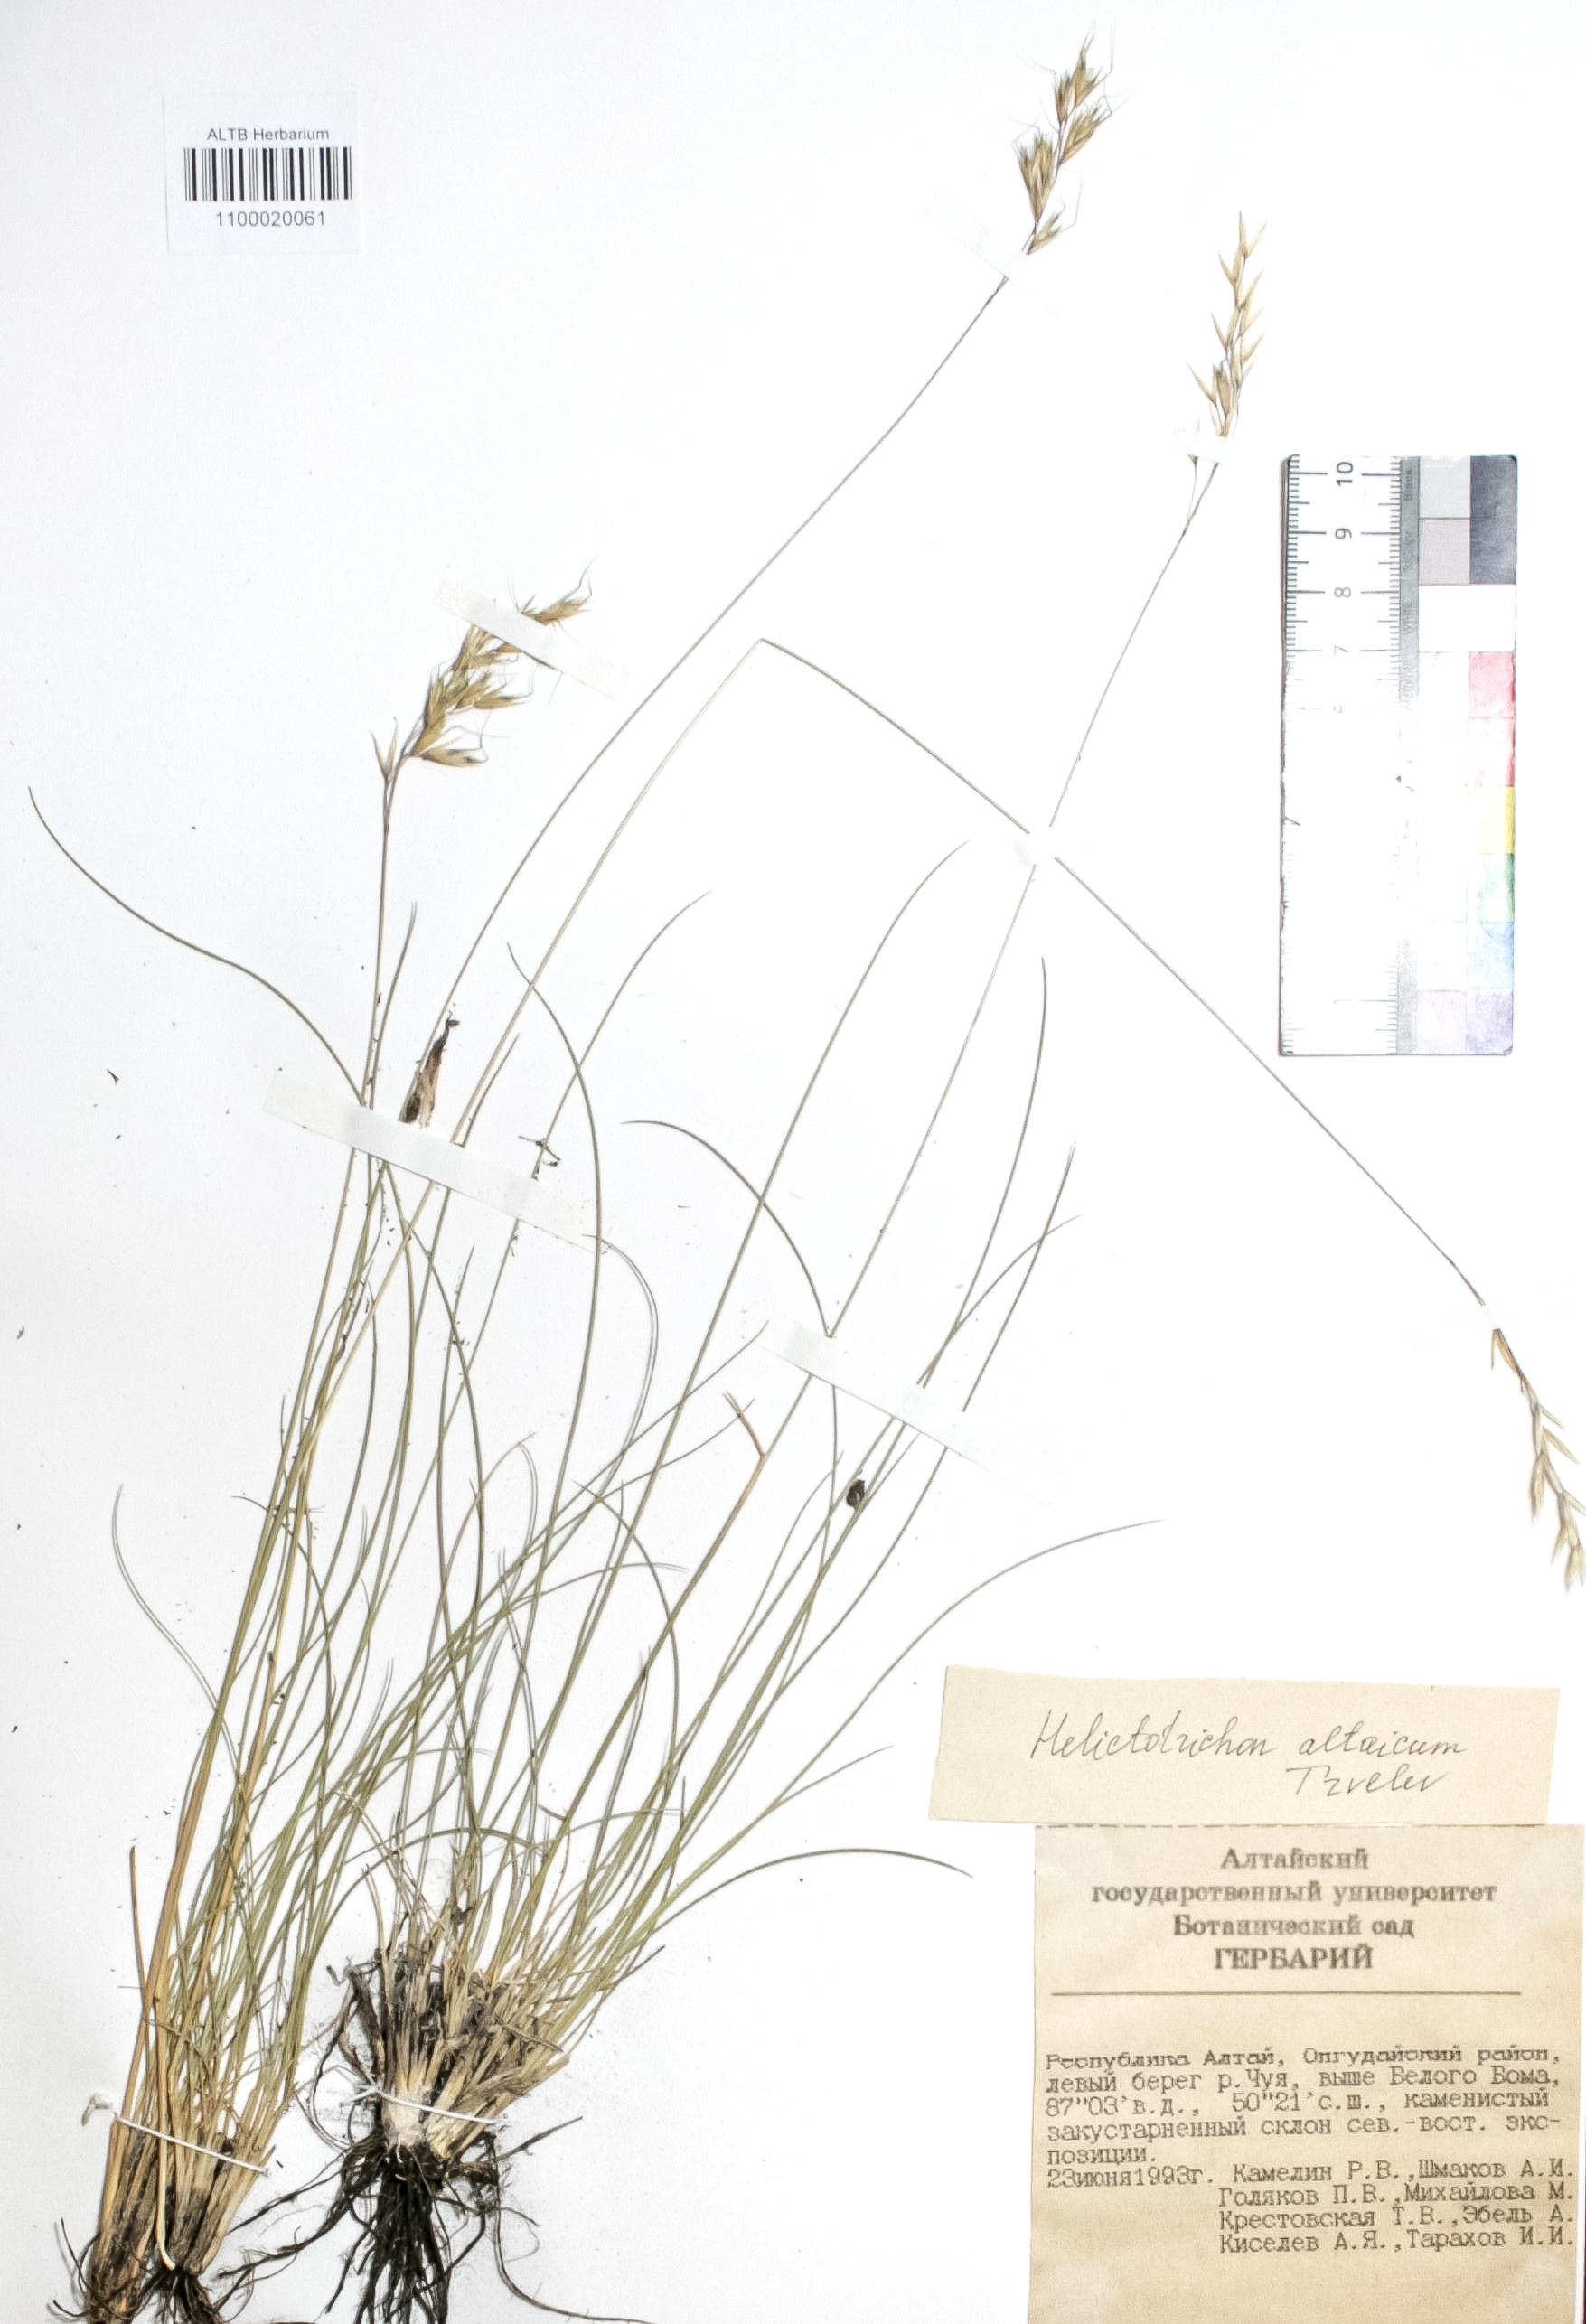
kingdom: Plantae
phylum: Tracheophyta
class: Liliopsida
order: Poales
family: Poaceae
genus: Helictotrichon
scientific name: Helictotrichon desertorum
